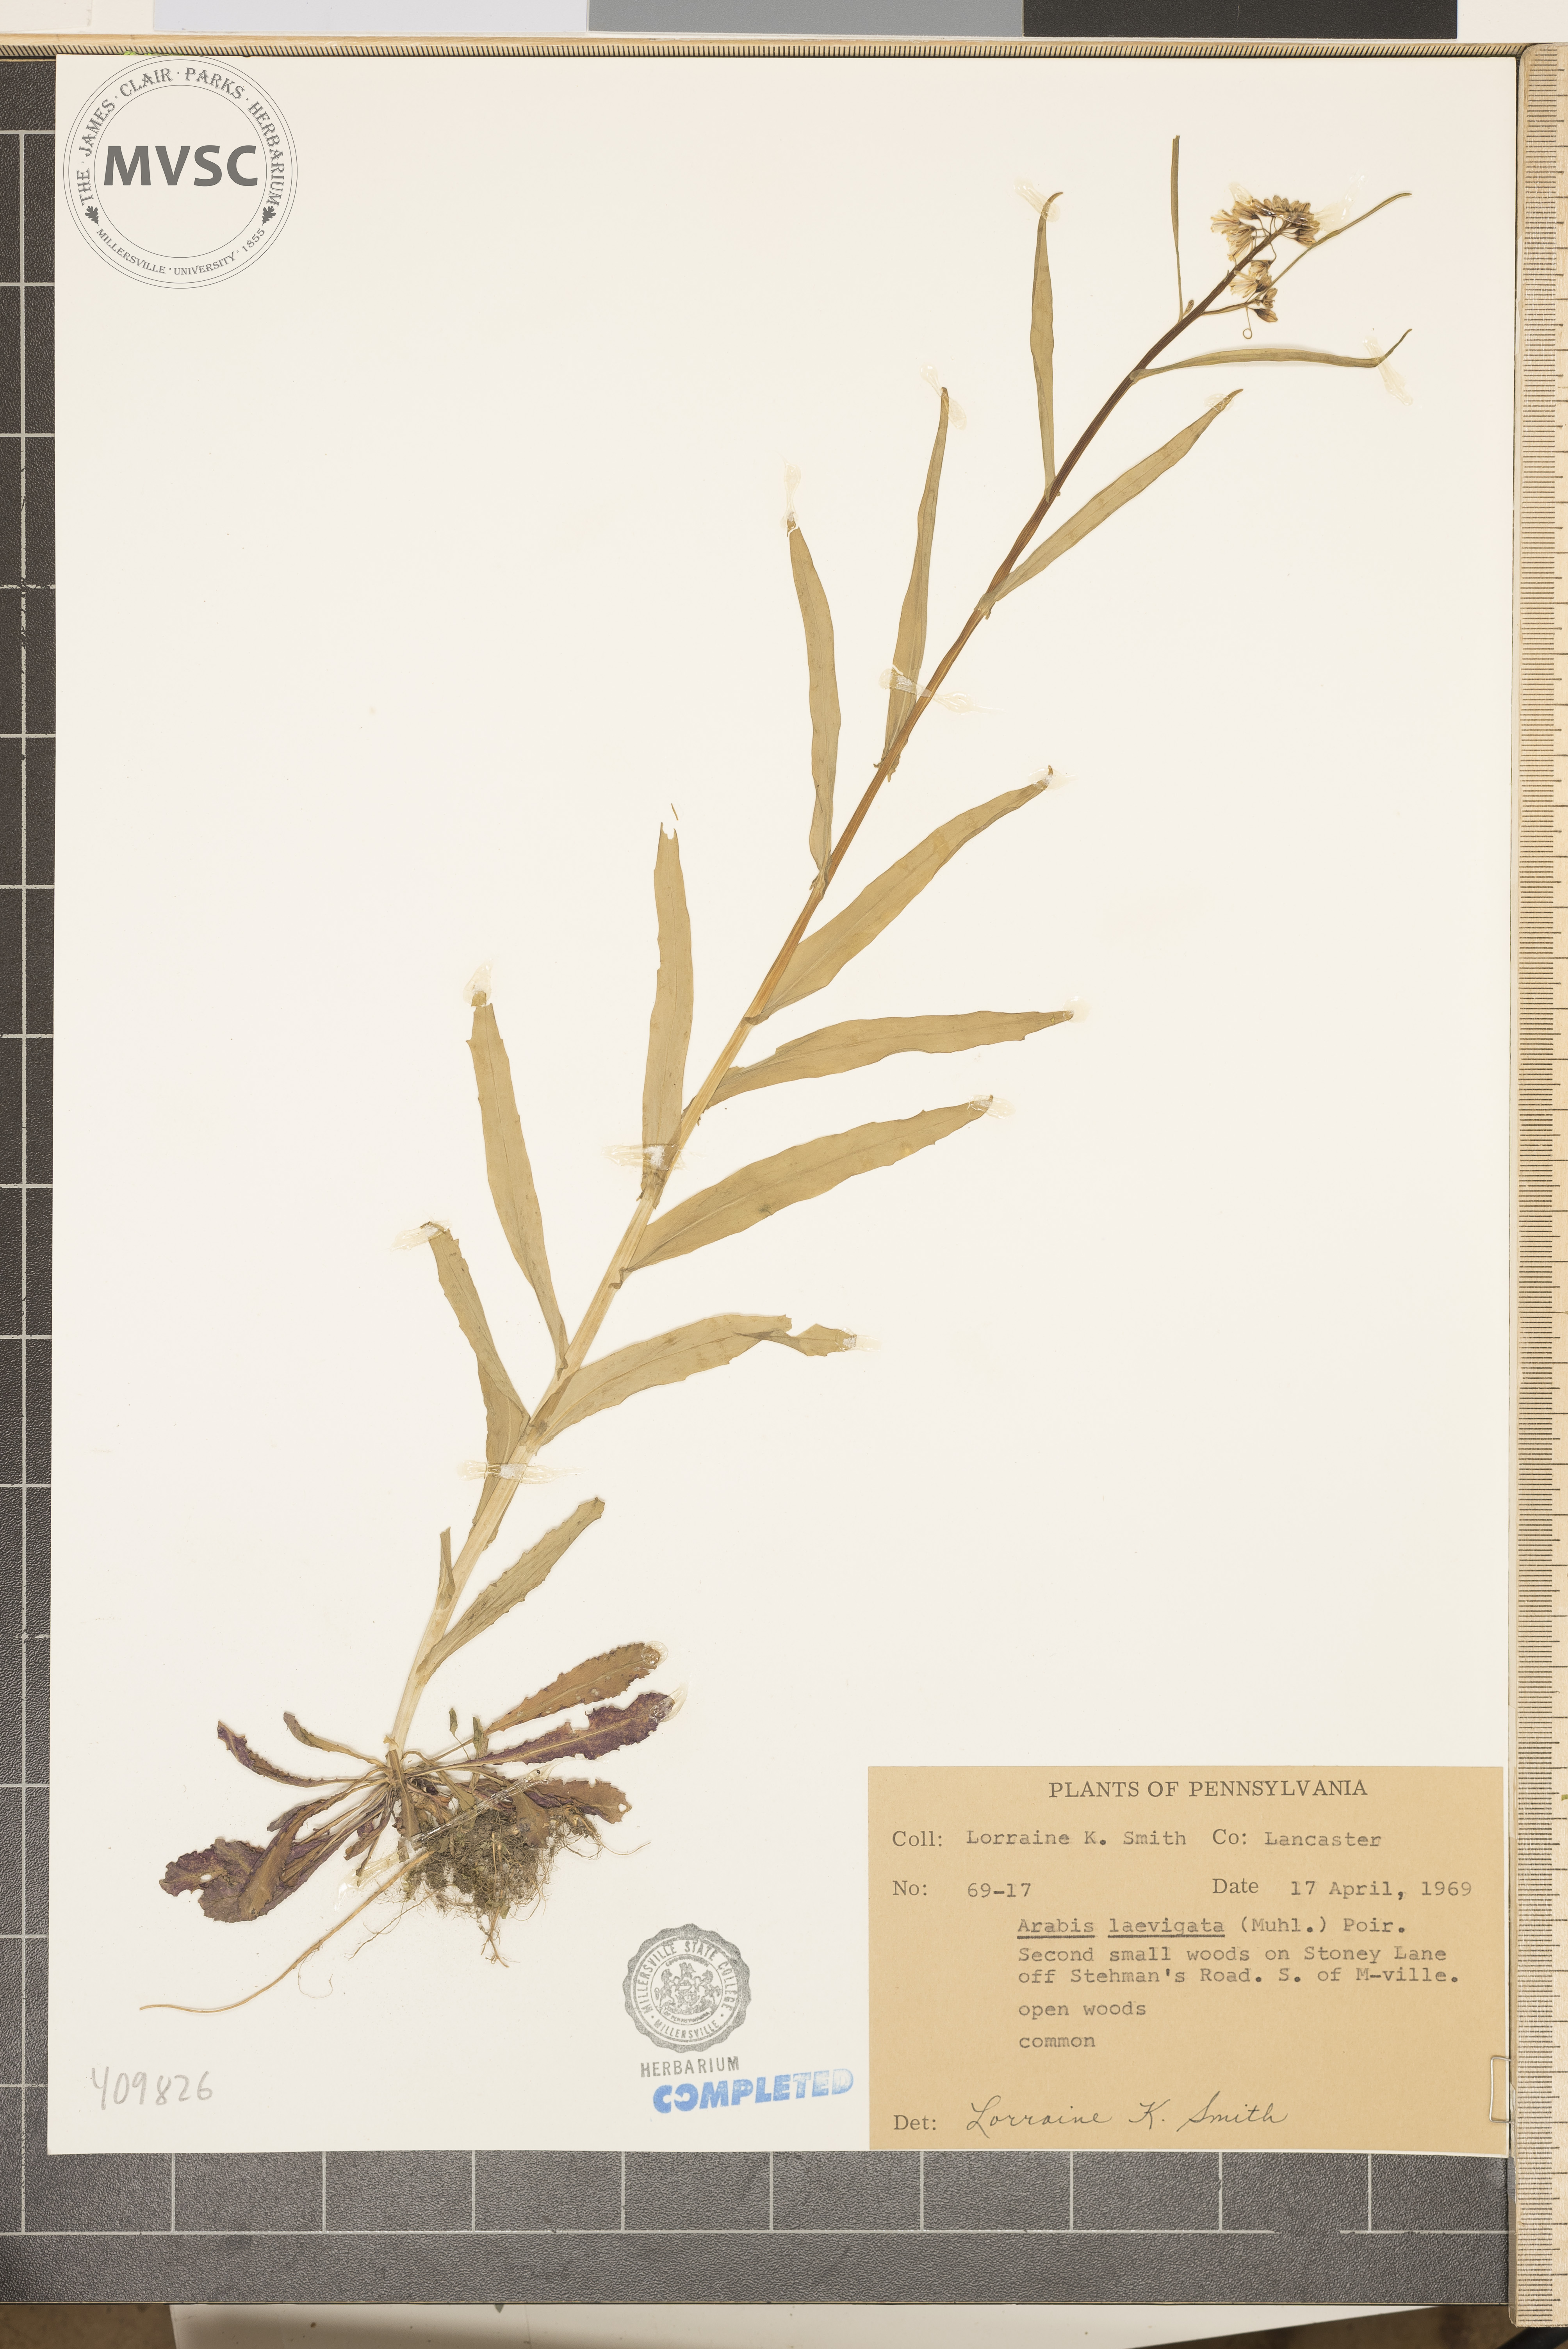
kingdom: Plantae
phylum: Tracheophyta
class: Magnoliopsida
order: Brassicales
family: Brassicaceae
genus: Arabis
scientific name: Arabis laevigata
